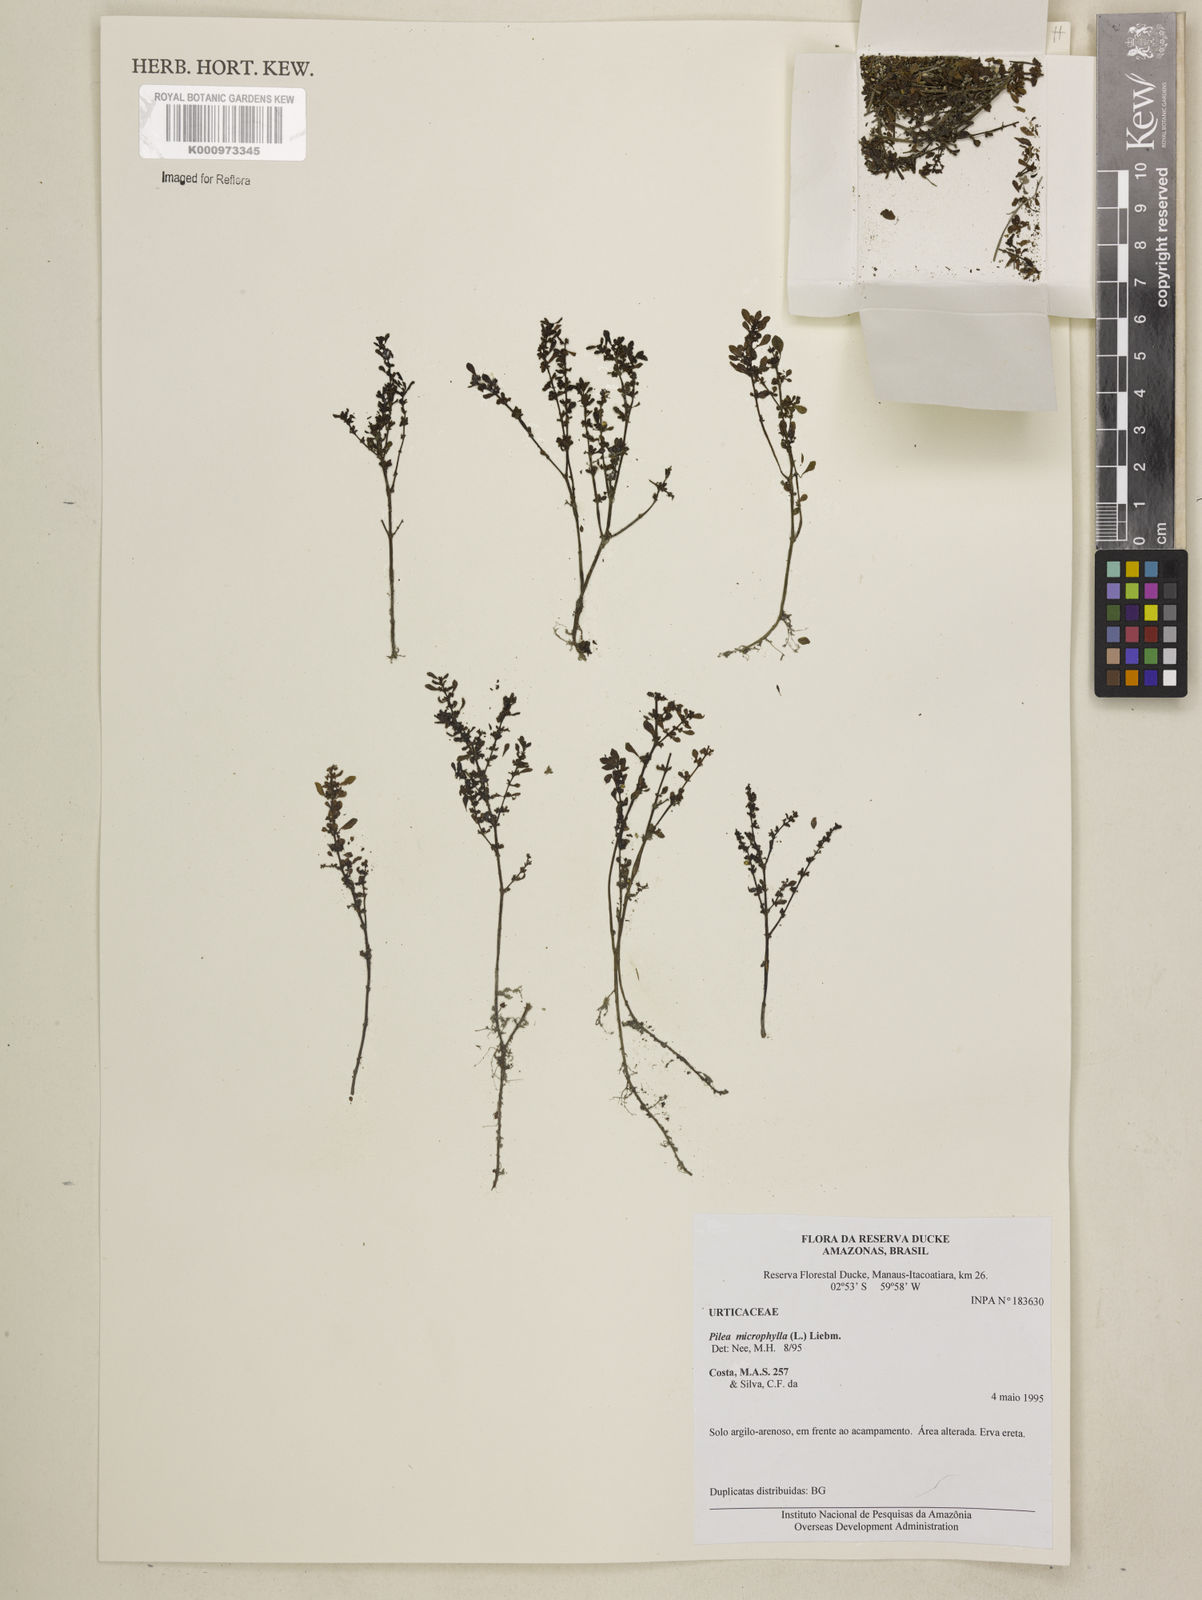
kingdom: Plantae
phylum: Tracheophyta
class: Magnoliopsida
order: Rosales
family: Urticaceae
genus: Pilea
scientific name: Pilea microphylla
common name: Artillery-plant
